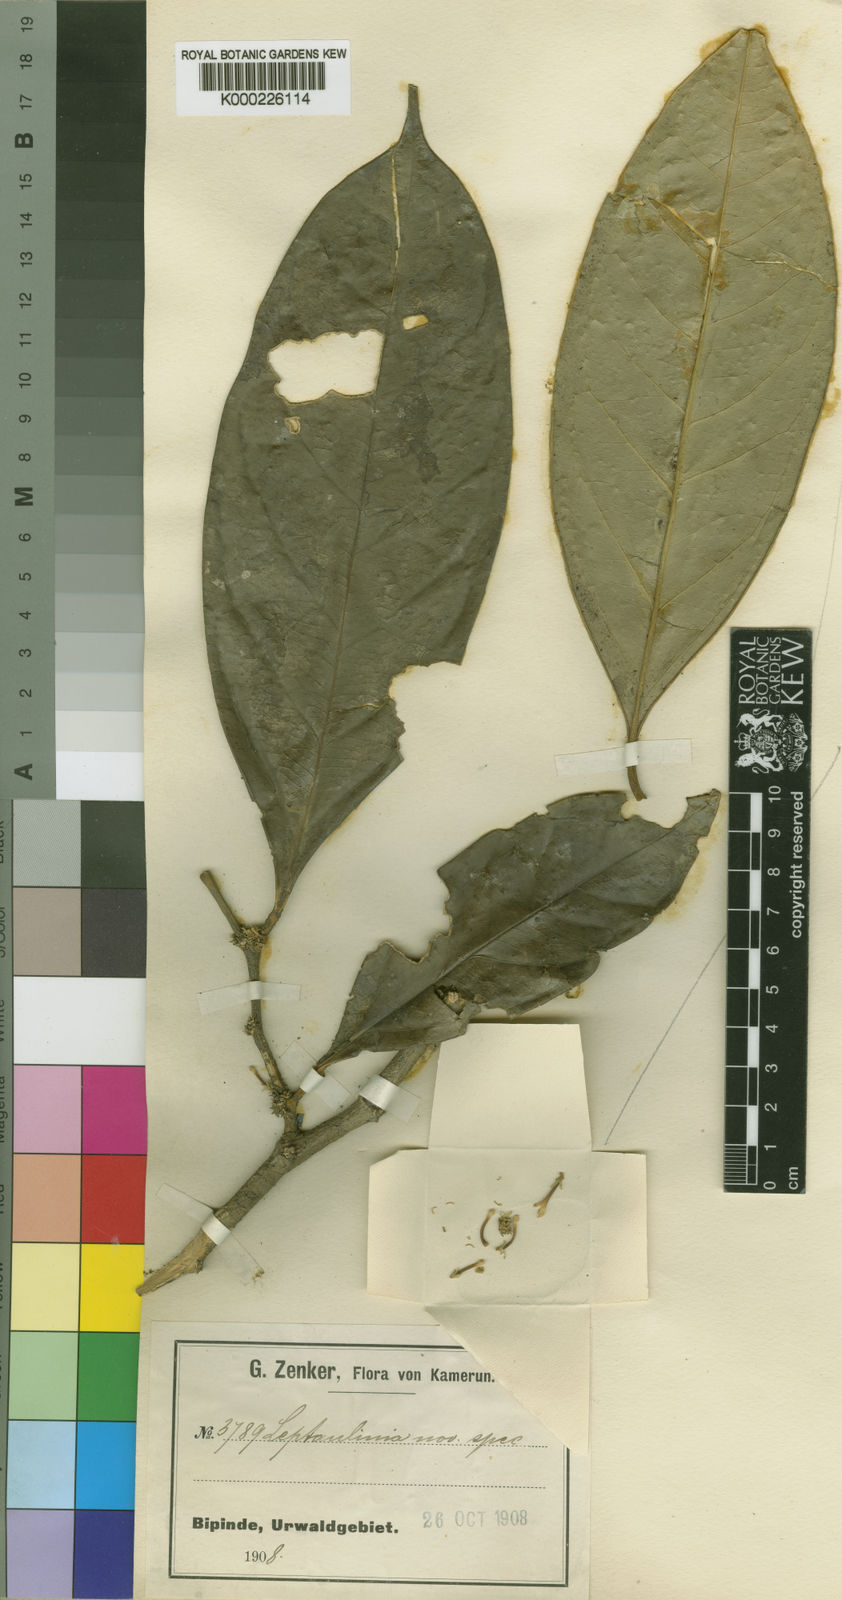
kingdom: Plantae
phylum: Tracheophyta
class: Magnoliopsida
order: Cardiopteridales
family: Cardiopteridaceae
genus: Leptaulus
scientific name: Leptaulus grandifolius
